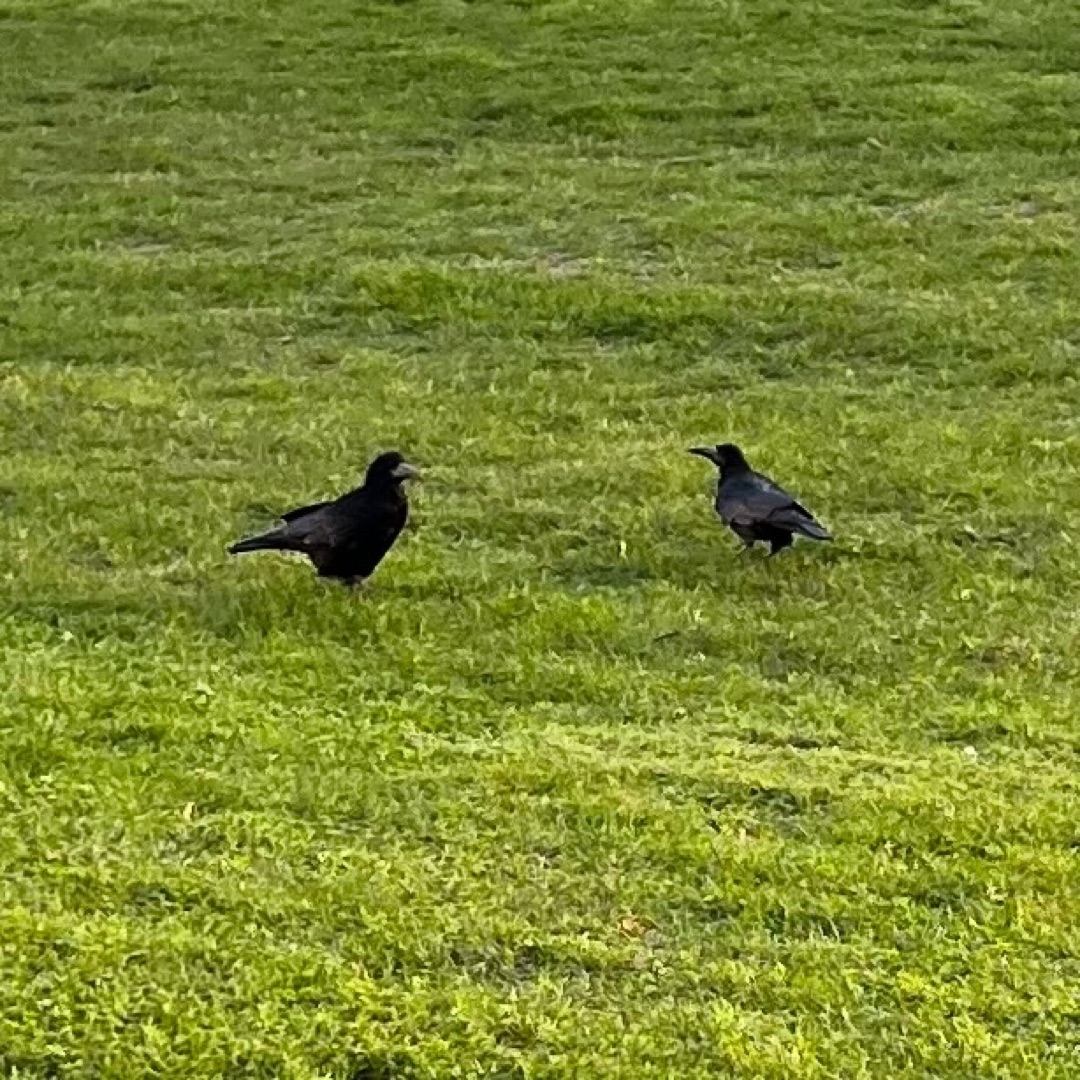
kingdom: Animalia
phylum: Chordata
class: Aves
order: Passeriformes
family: Corvidae
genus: Corvus
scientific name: Corvus frugilegus
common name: Råge
